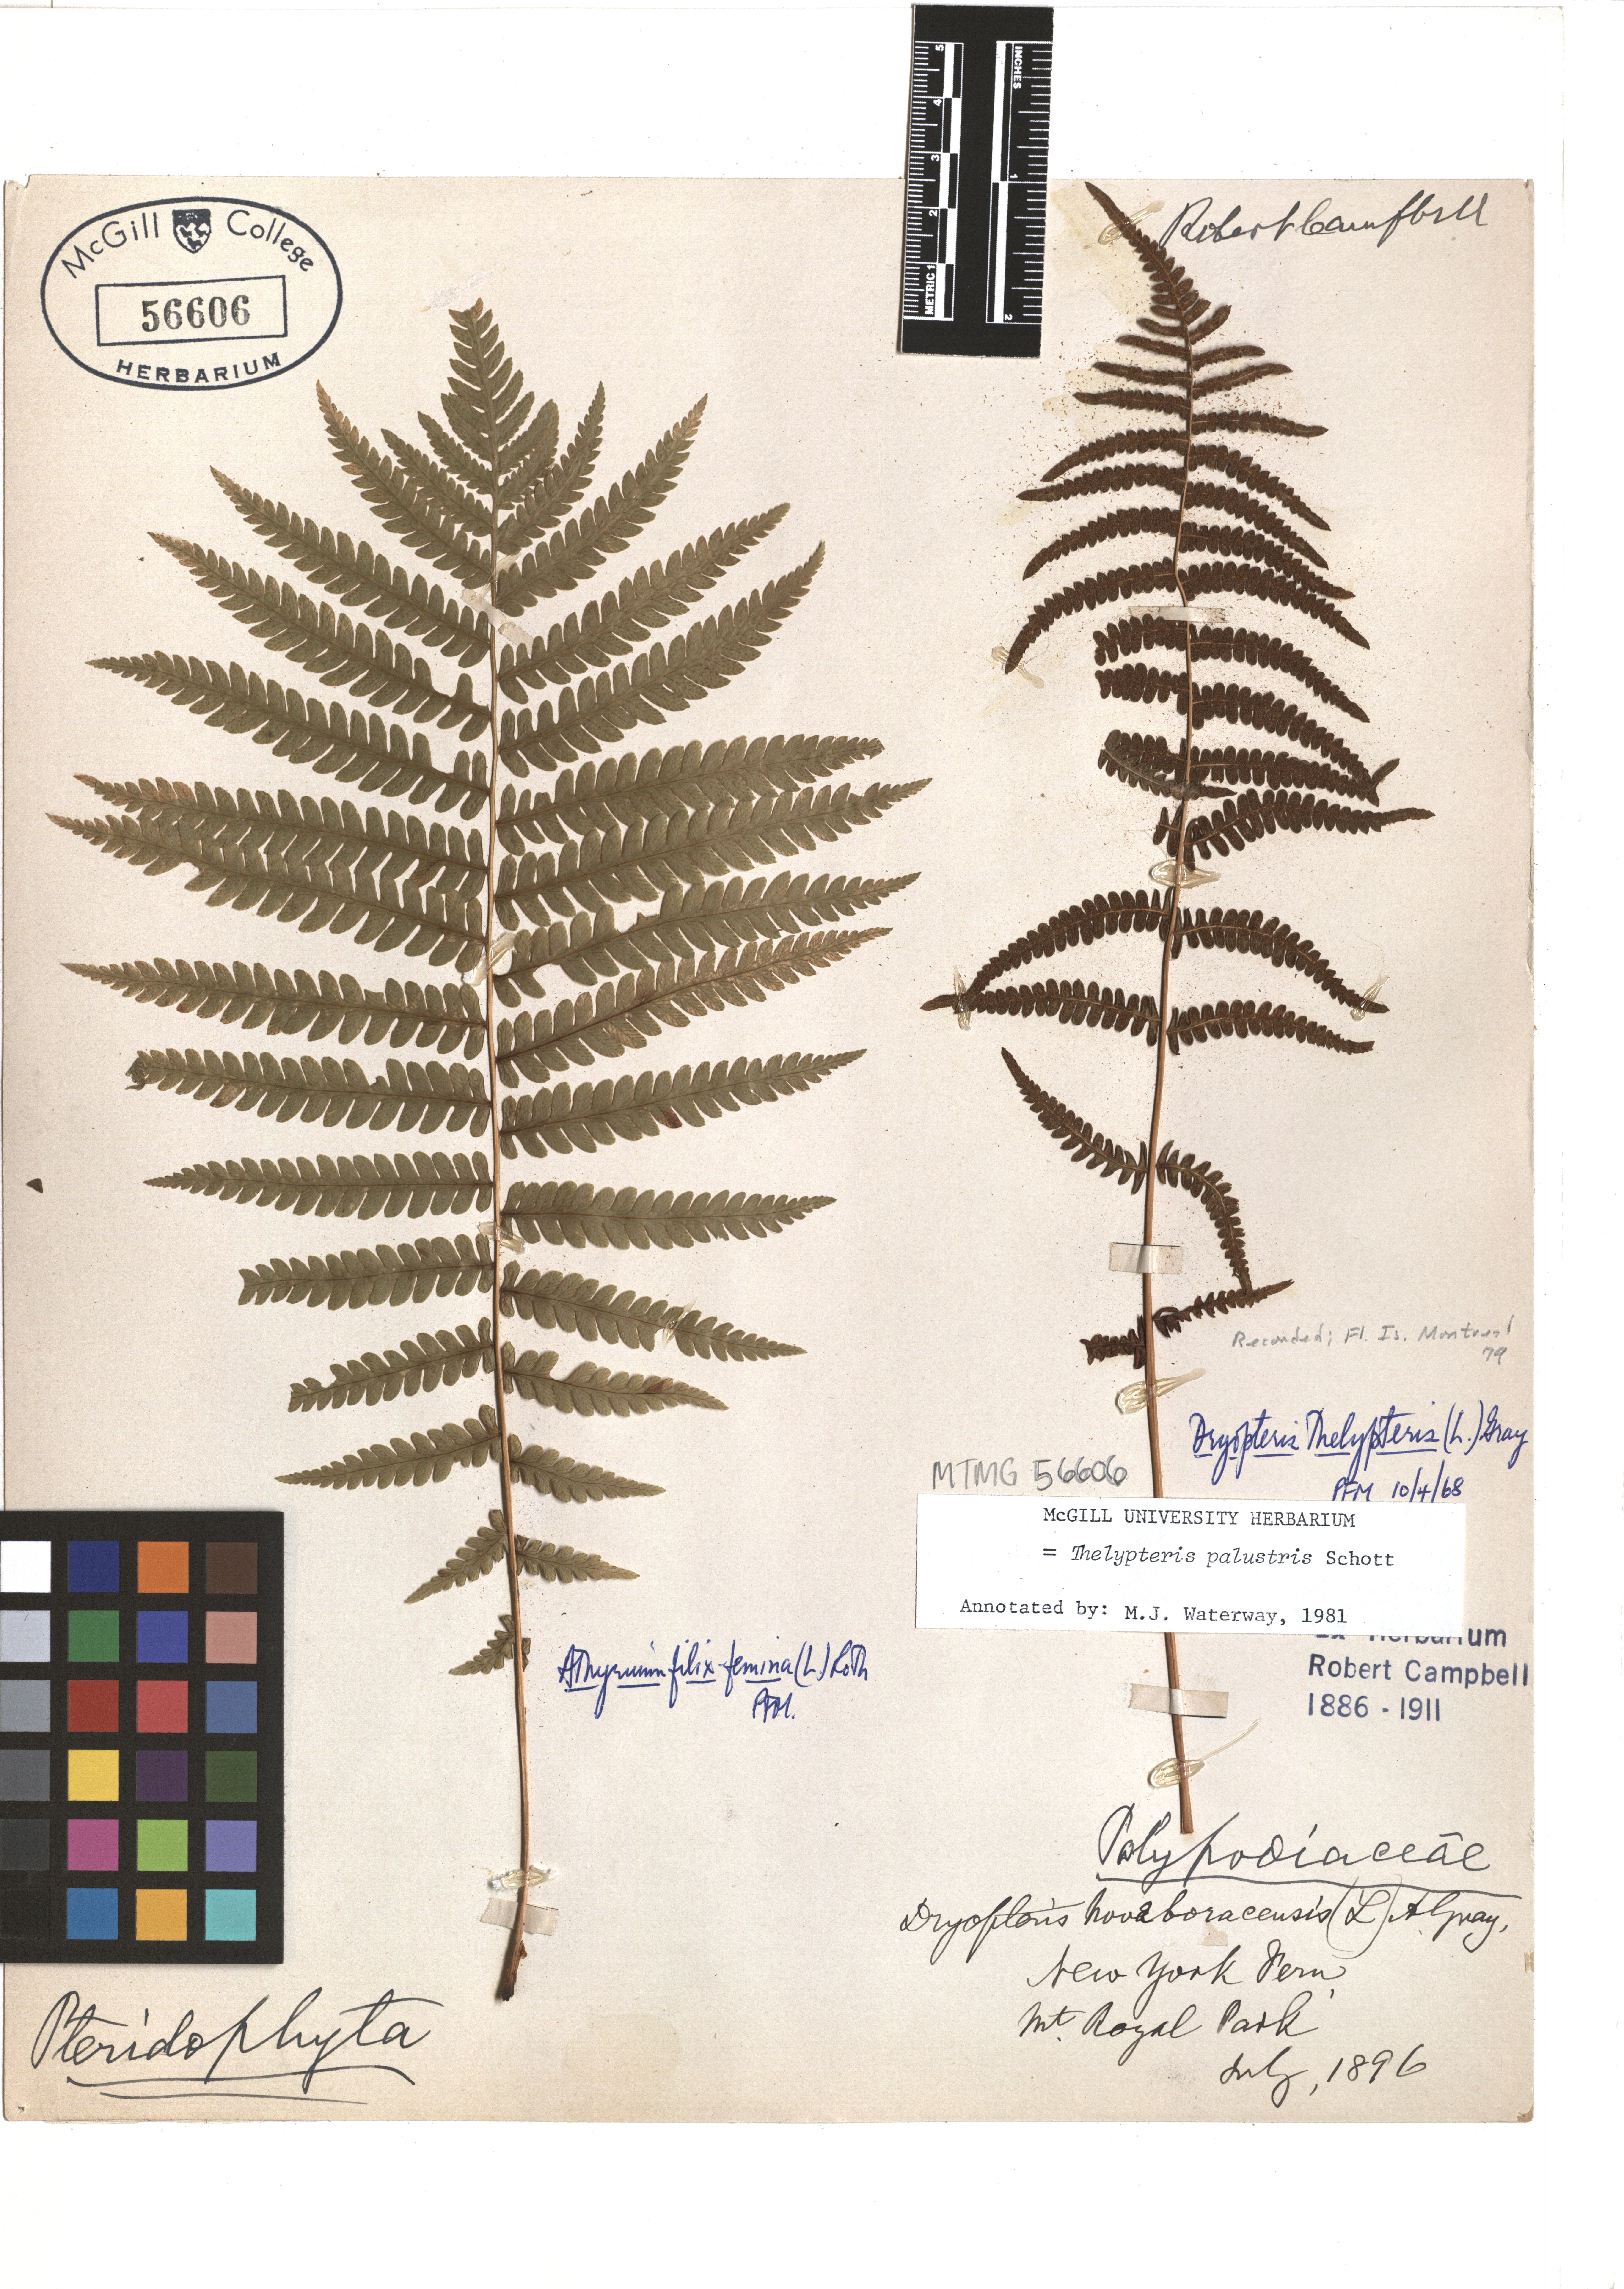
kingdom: Plantae
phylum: Tracheophyta
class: Polypodiopsida
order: Polypodiales
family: Thelypteridaceae
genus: Thelypteris
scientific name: Thelypteris palustris
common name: Marsh fern
